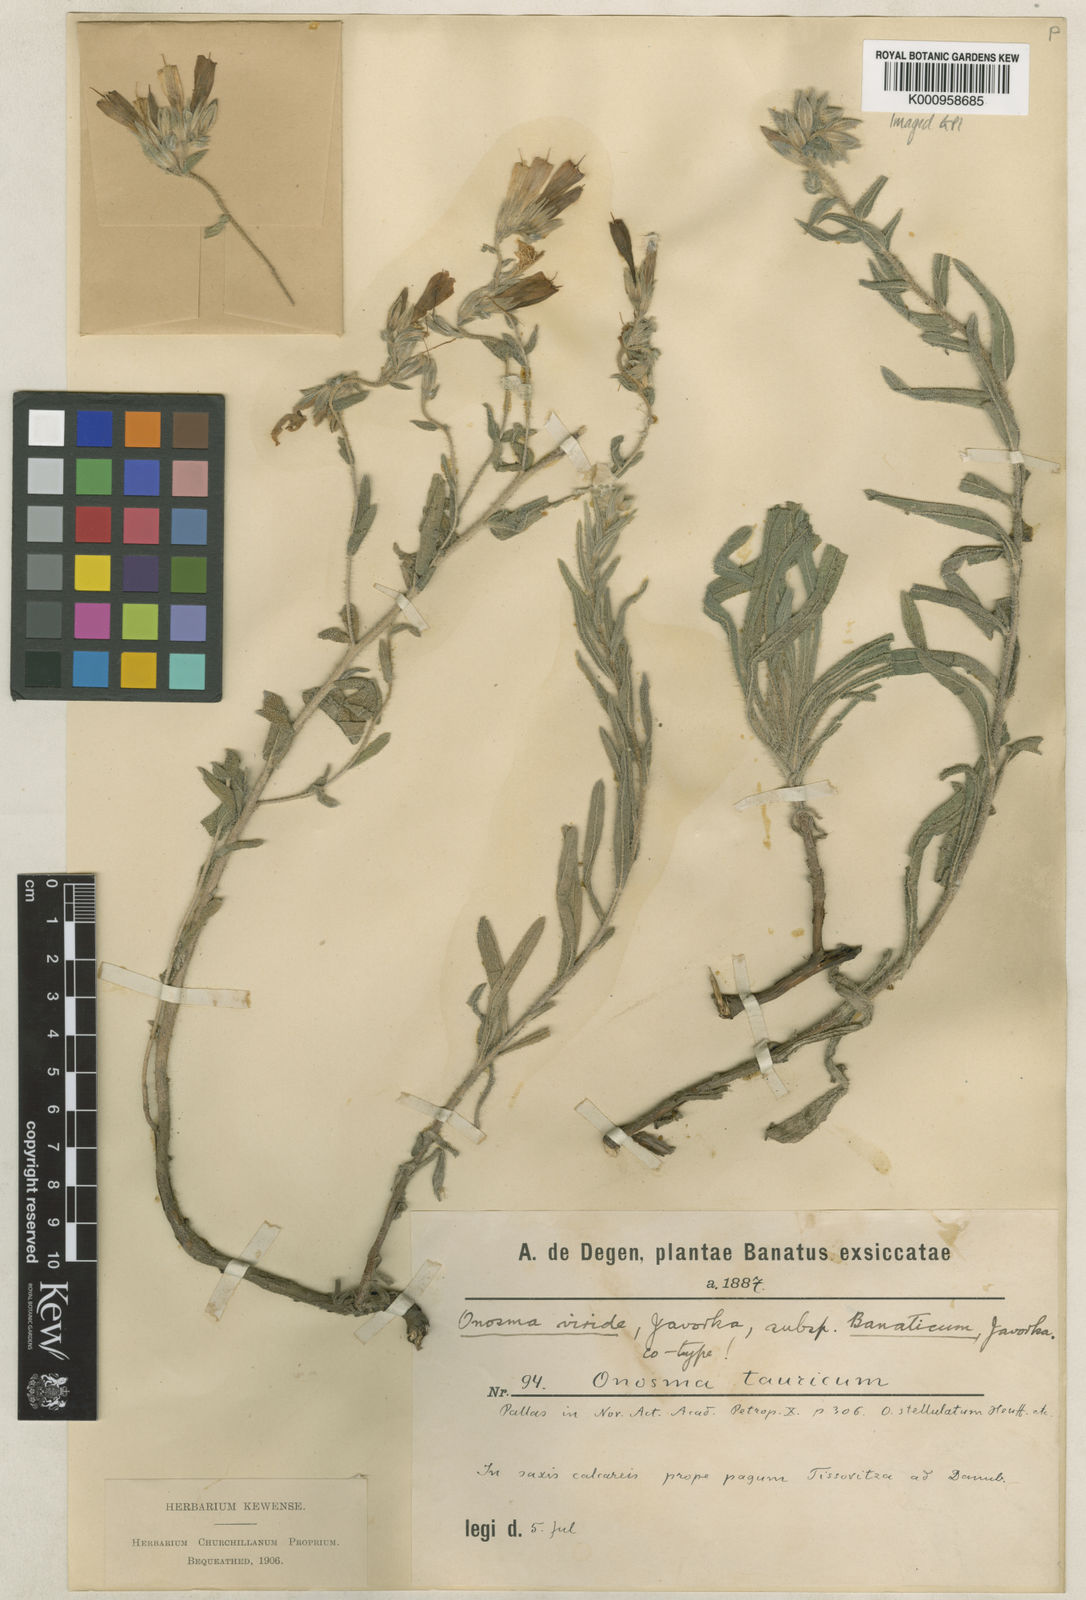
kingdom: Plantae
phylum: Tracheophyta
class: Magnoliopsida
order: Boraginales
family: Boraginaceae
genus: Onosma
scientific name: Onosma heterophylla
